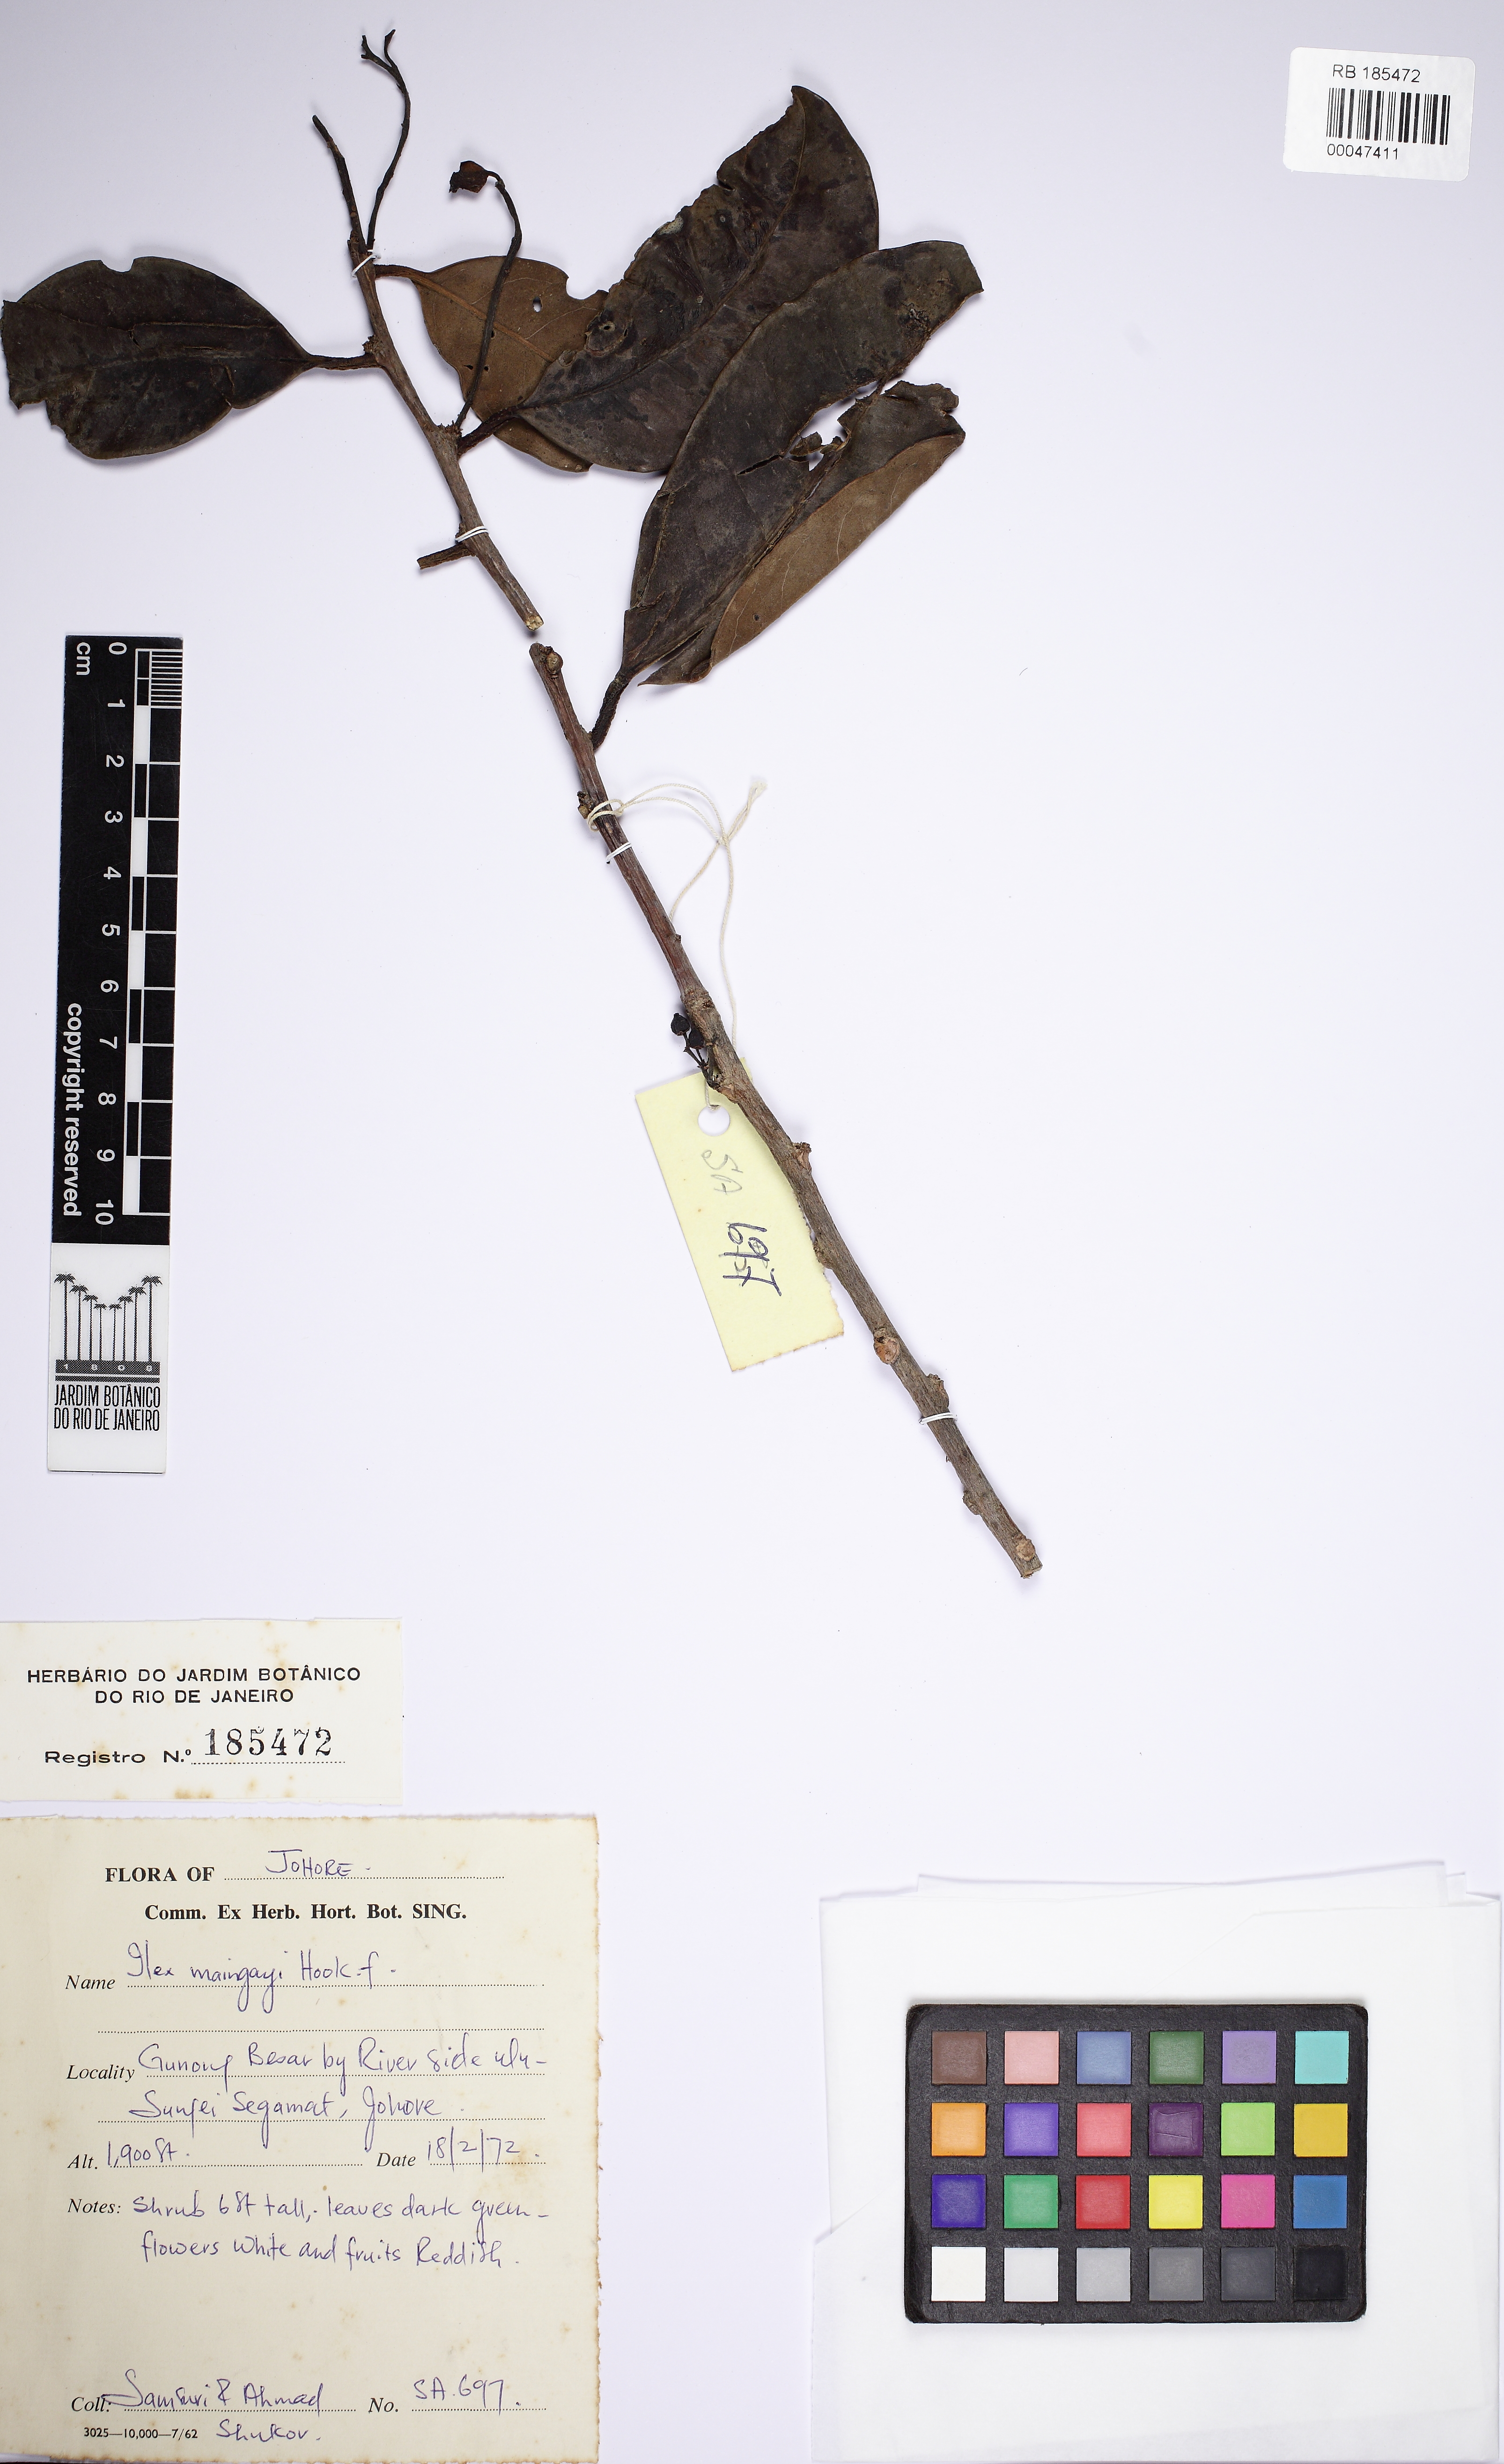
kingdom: Plantae
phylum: Tracheophyta
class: Magnoliopsida
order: Aquifoliales
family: Aquifoliaceae
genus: Ilex
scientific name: Ilex maingayi
